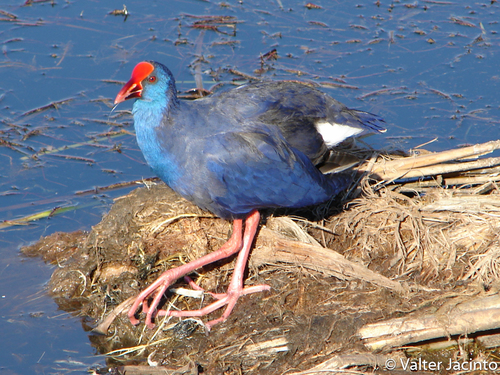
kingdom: Animalia
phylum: Chordata
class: Aves
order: Gruiformes
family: Rallidae
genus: Porphyrio
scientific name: Porphyrio porphyrio
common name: Purple swamphen
